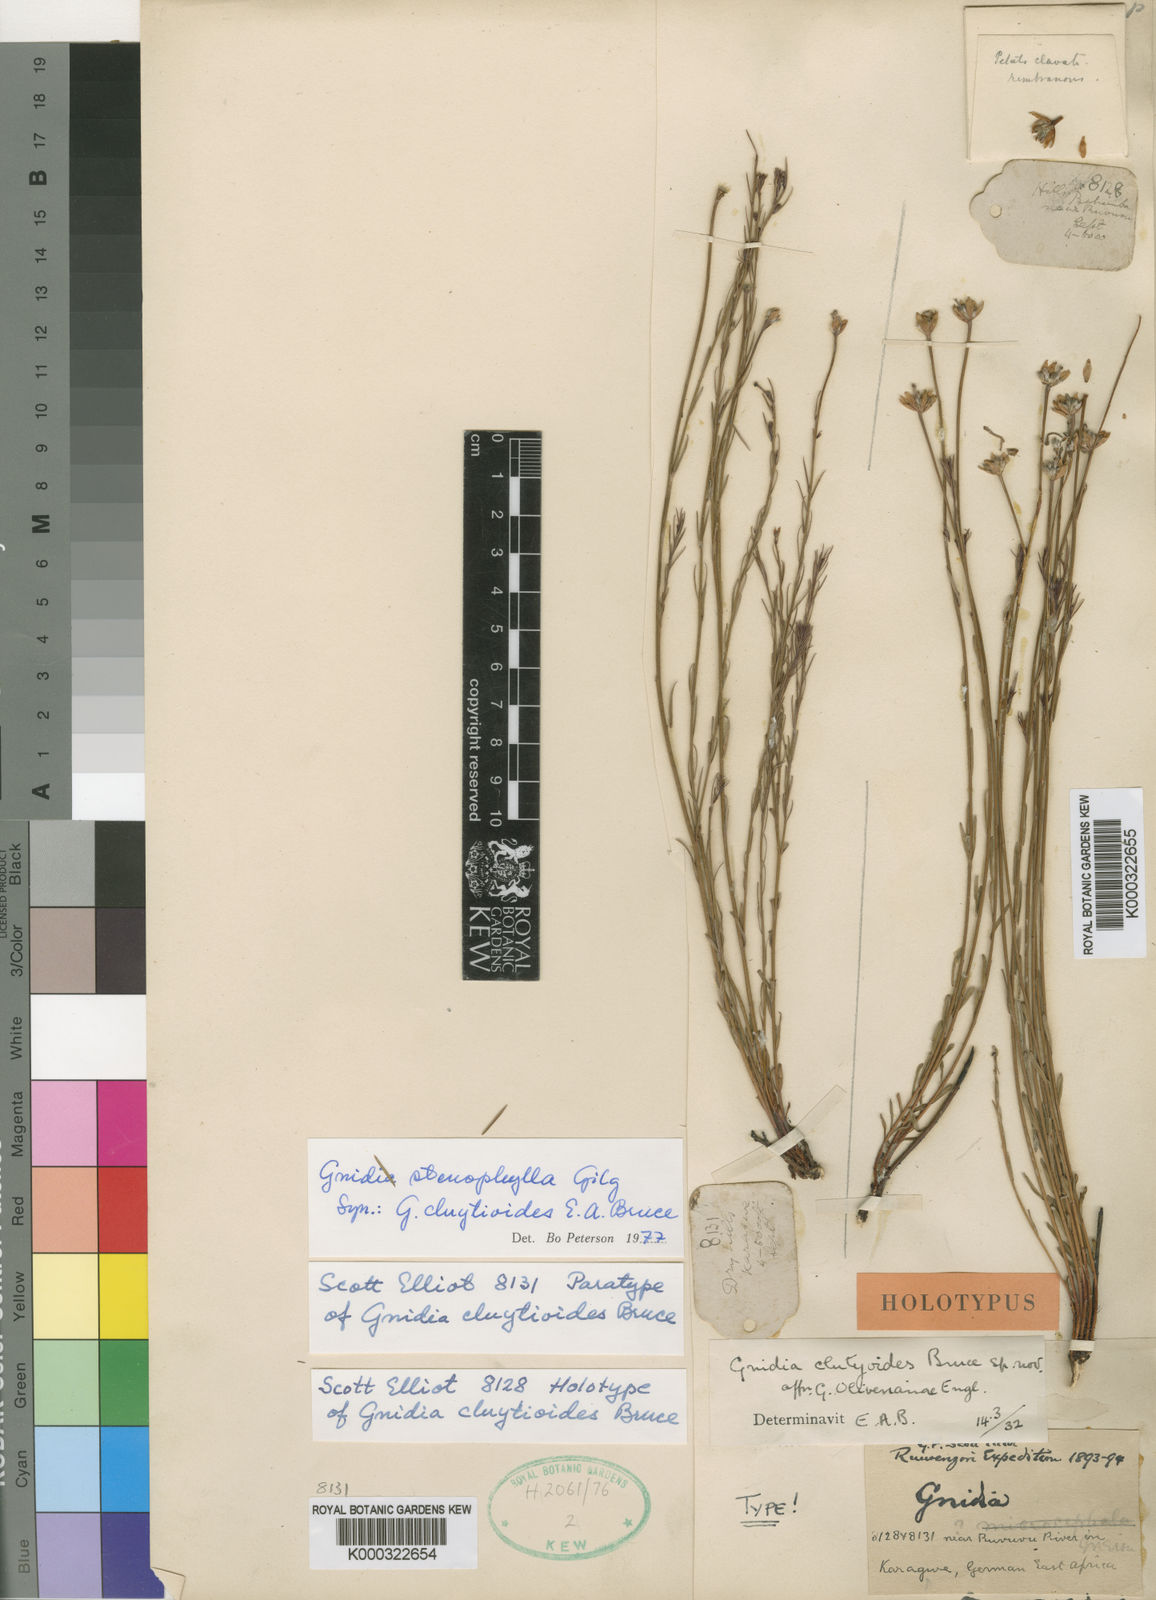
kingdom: Plantae
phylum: Tracheophyta
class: Magnoliopsida
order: Malvales
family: Thymelaeaceae
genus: Gnidia
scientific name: Gnidia stenophylla
